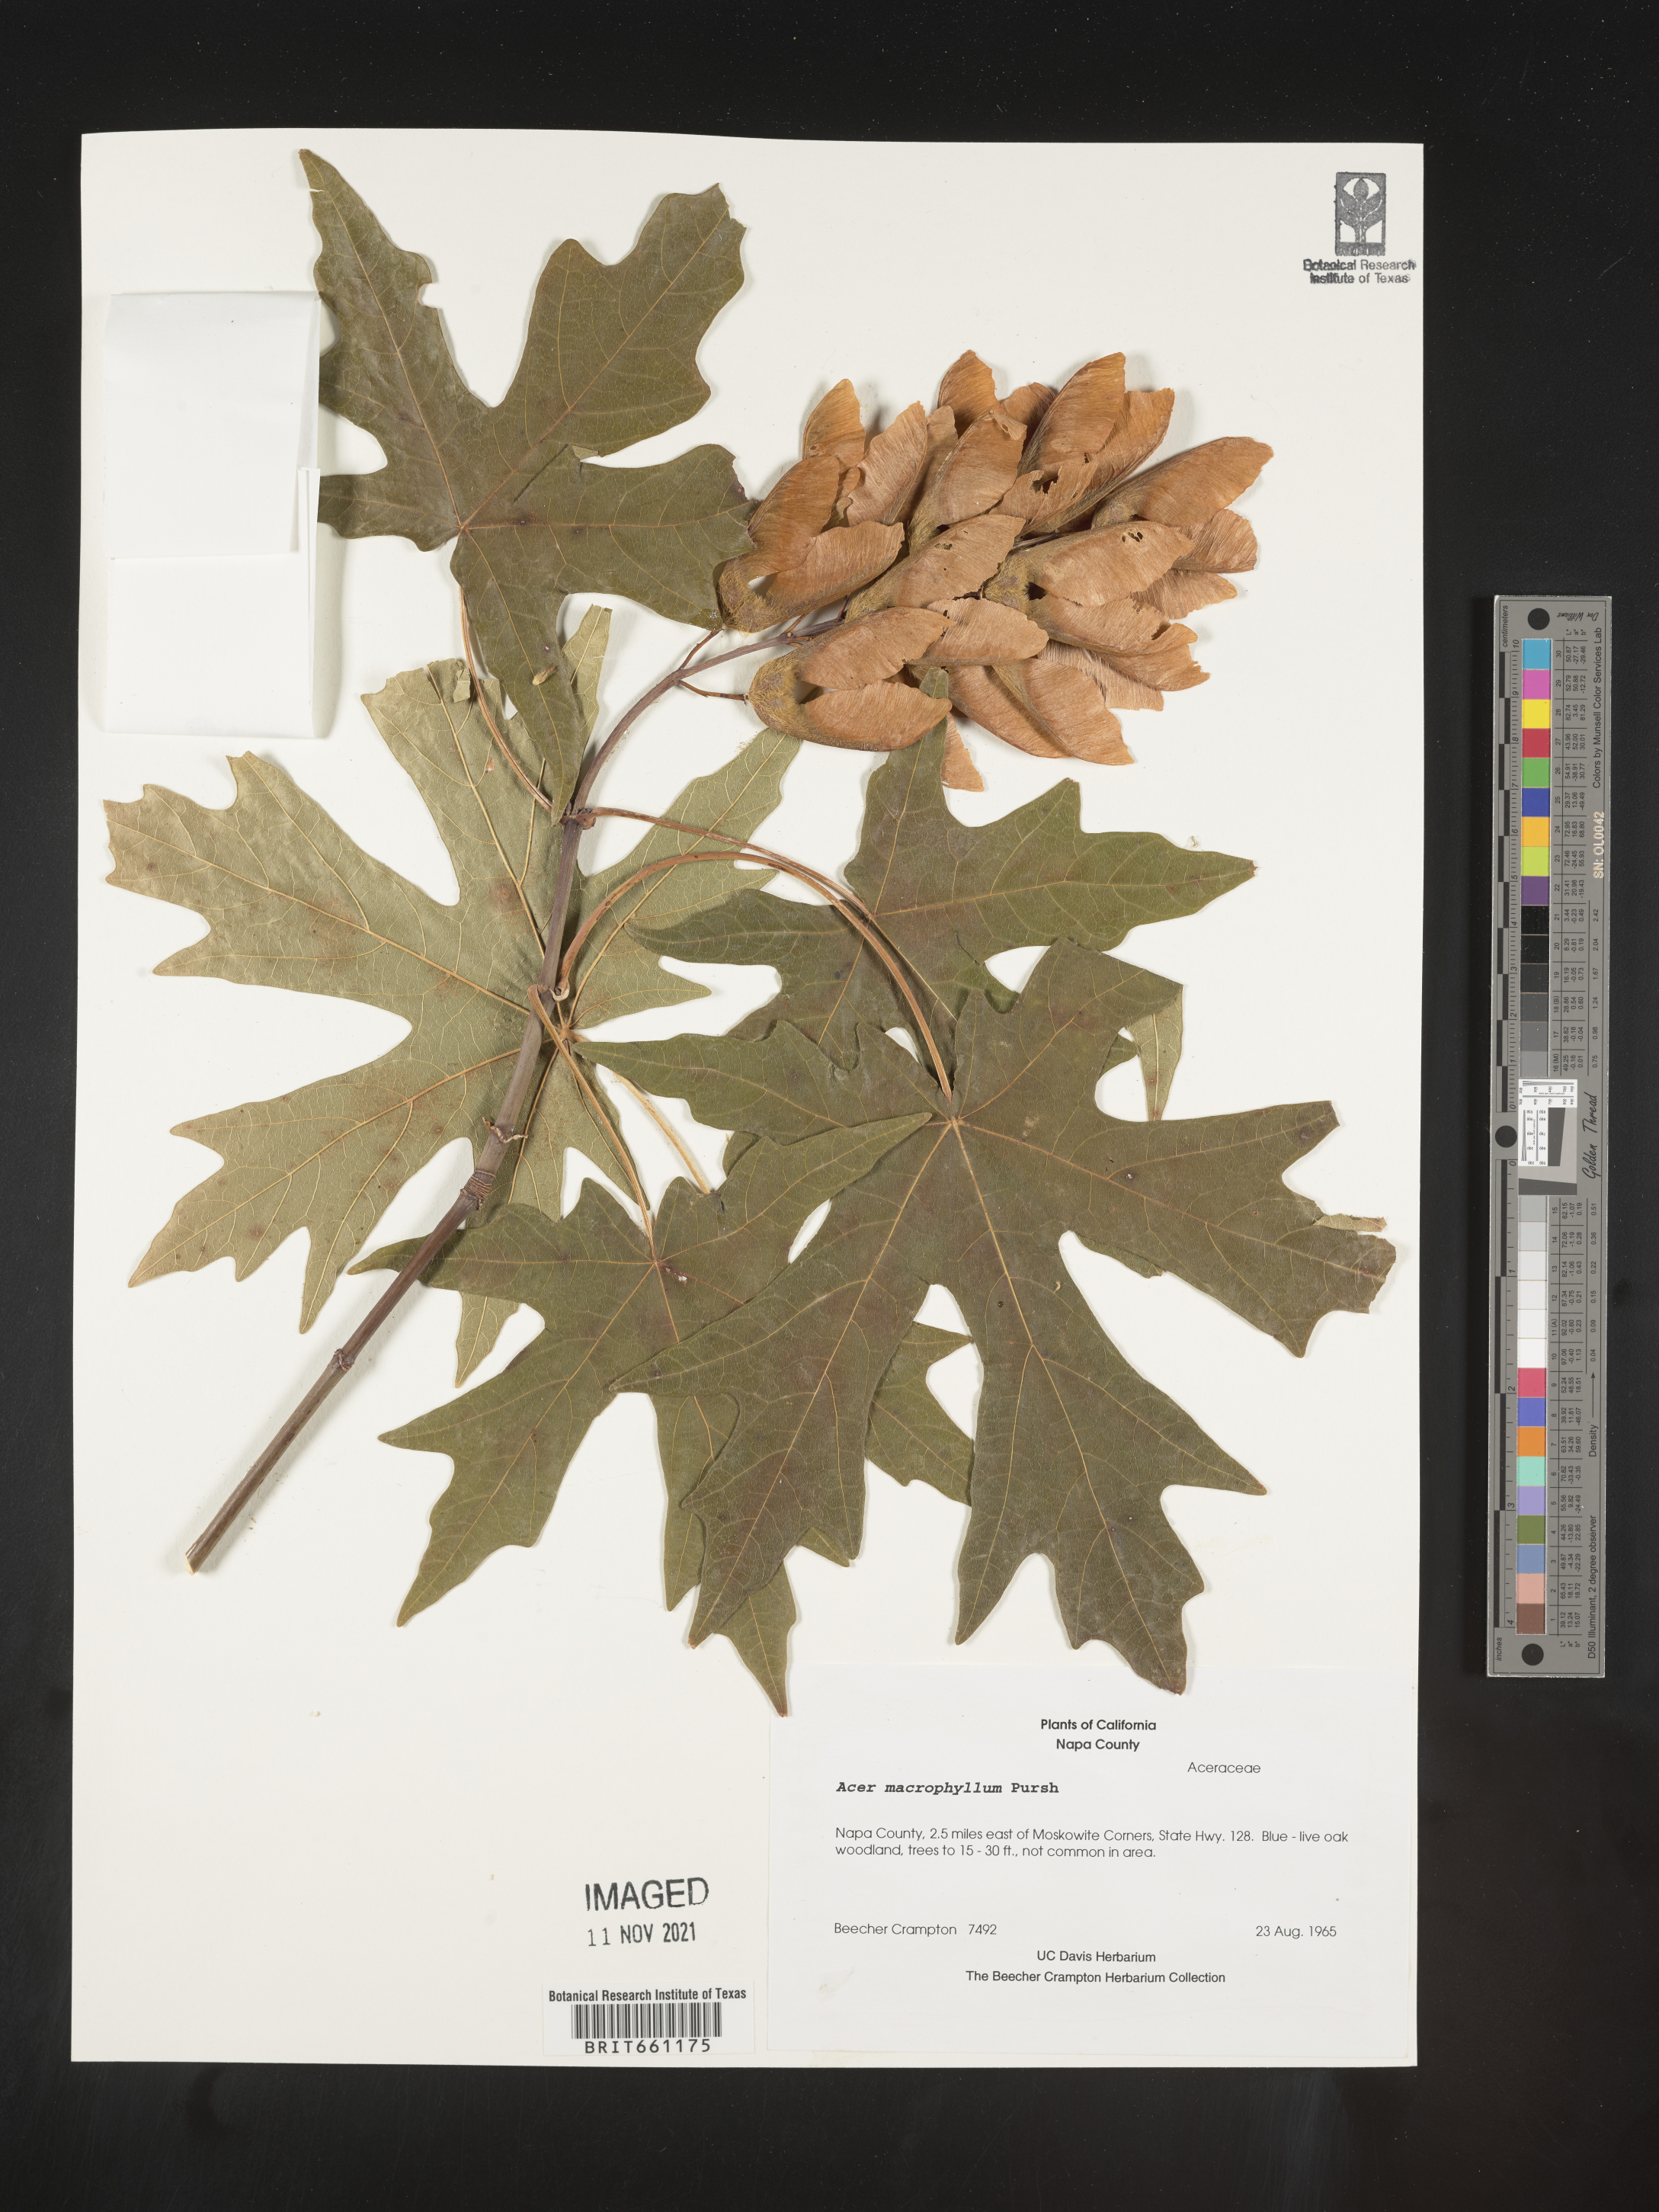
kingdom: Plantae
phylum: Tracheophyta
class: Magnoliopsida
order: Sapindales
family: Sapindaceae
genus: Acer
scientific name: Acer macrophyllum
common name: Oregon maple
